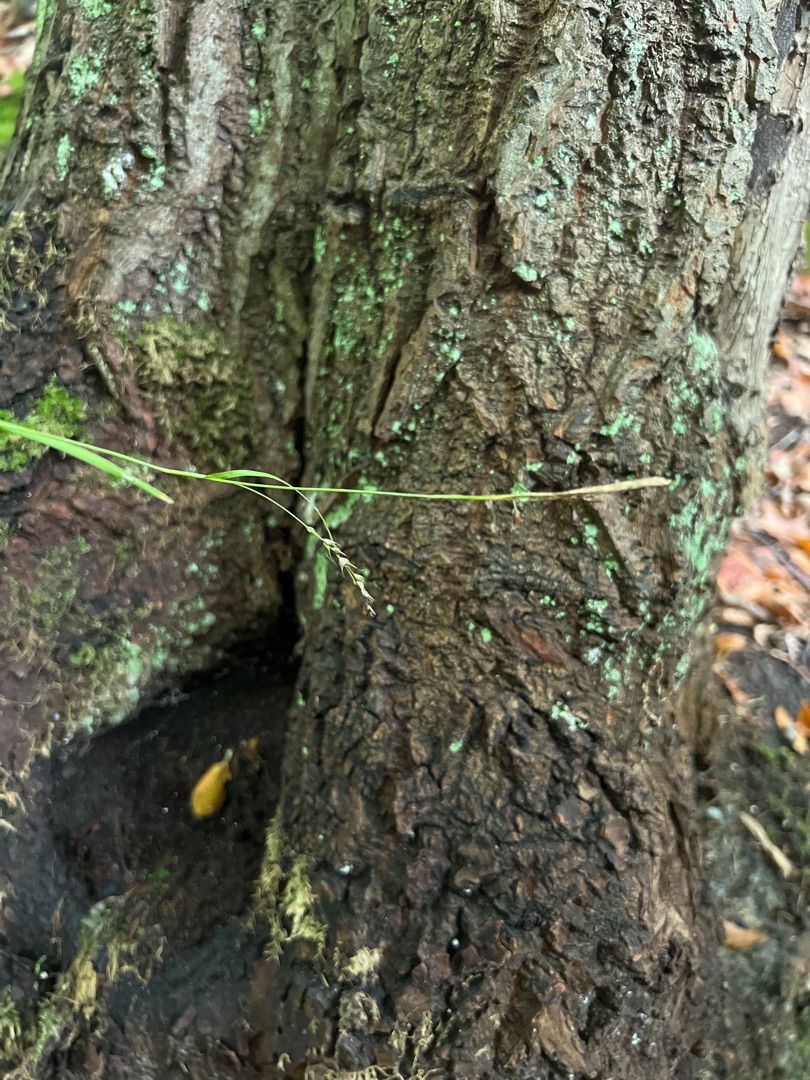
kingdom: Plantae
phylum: Tracheophyta
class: Liliopsida
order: Poales
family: Cyperaceae
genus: Carex
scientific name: Carex sylvatica
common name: Skov-star
